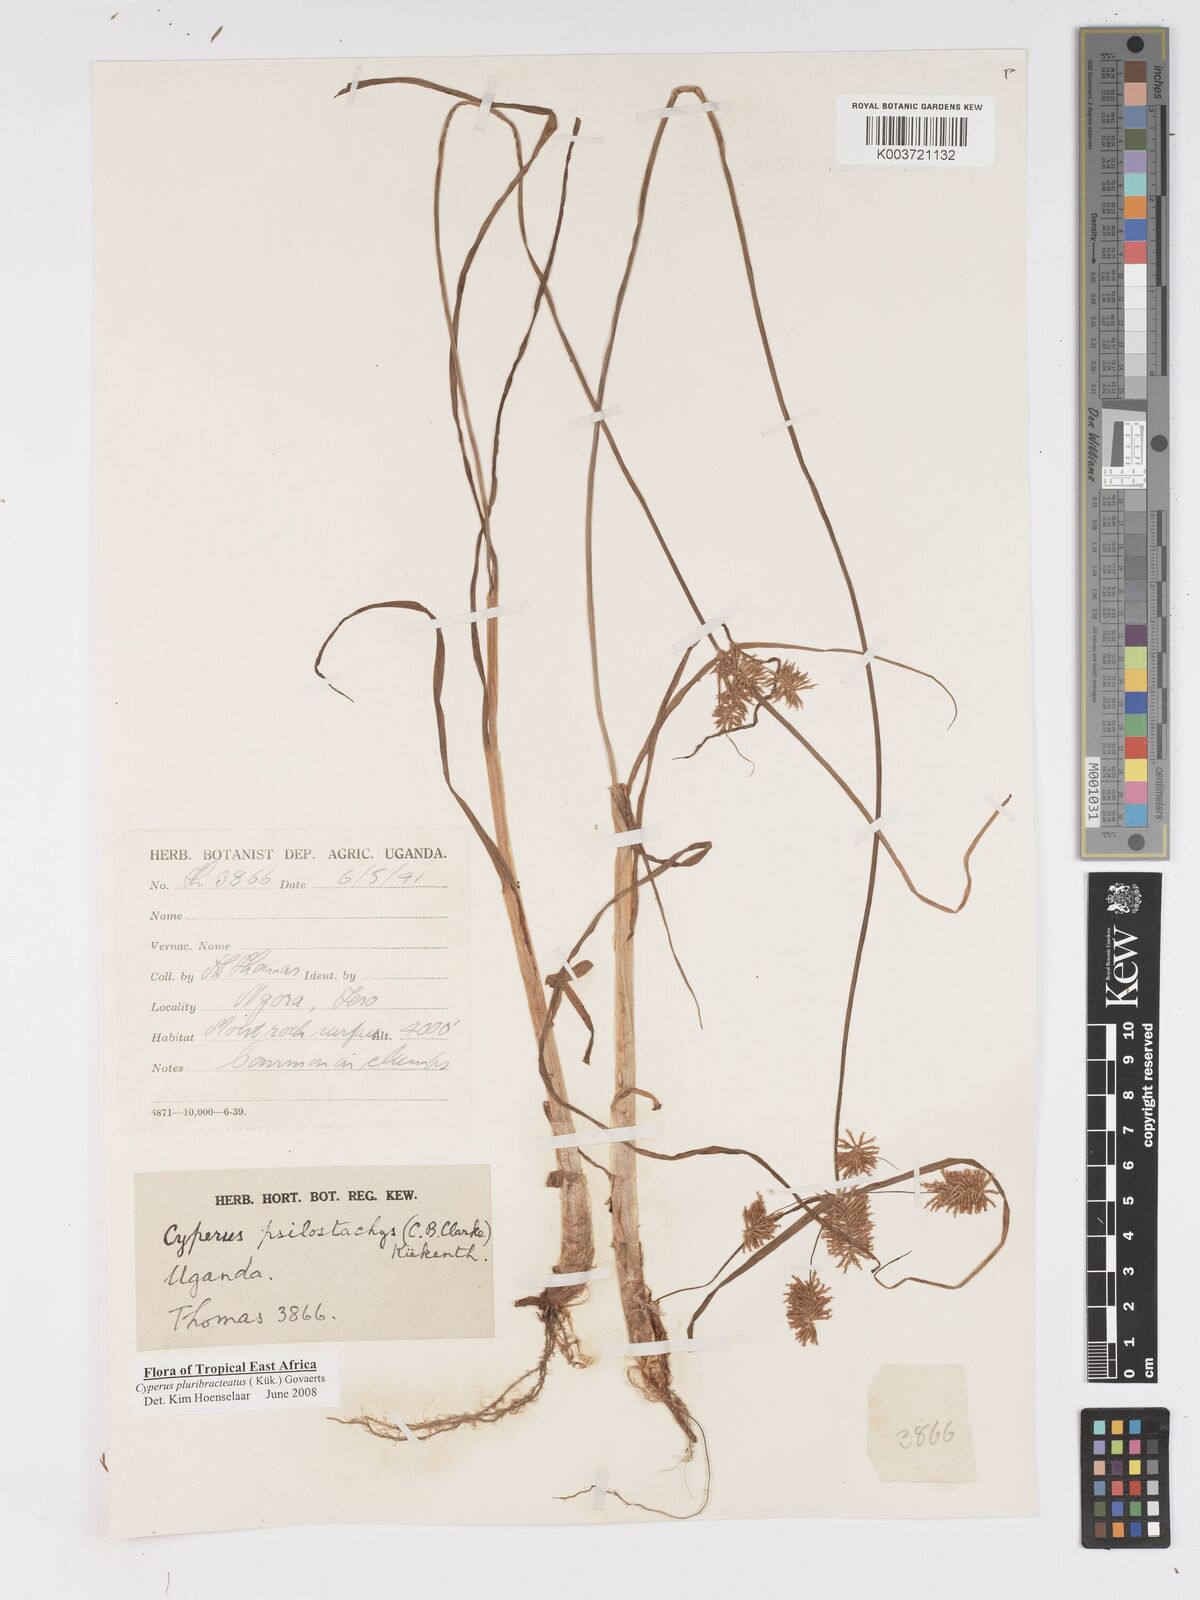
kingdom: Plantae
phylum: Tracheophyta
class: Liliopsida
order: Poales
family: Cyperaceae
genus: Cyperus
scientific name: Cyperus trigonellus
